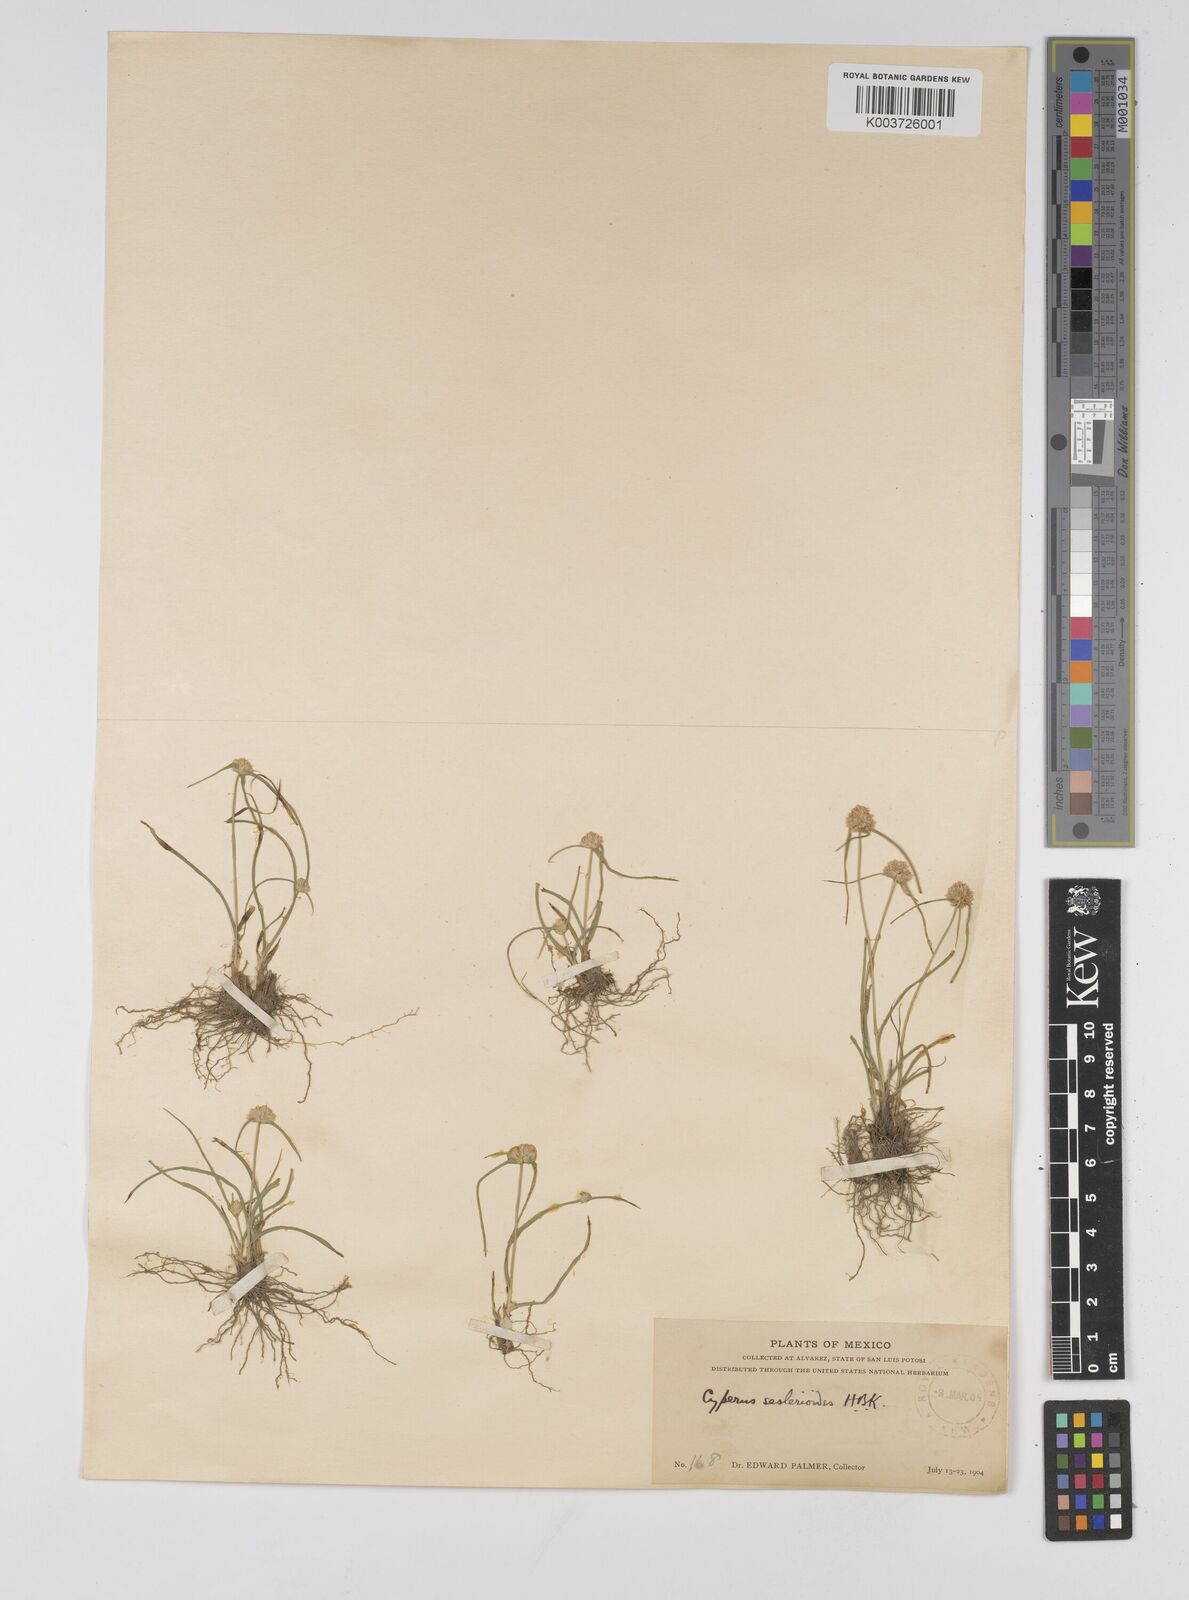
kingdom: Plantae
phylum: Tracheophyta
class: Liliopsida
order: Poales
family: Cyperaceae
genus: Cyperus
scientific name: Cyperus seslerioides
